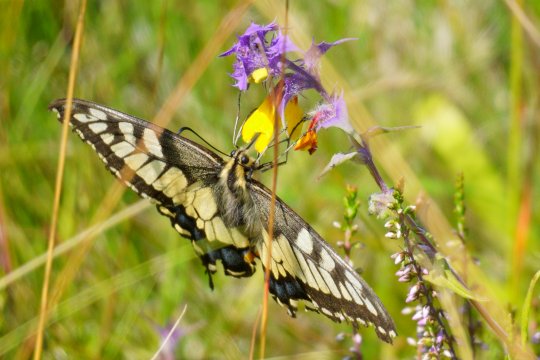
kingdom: Animalia
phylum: Arthropoda
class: Insecta
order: Lepidoptera
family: Papilionidae
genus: Papilio
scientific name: Papilio machaon
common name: Old World Swallowtail
